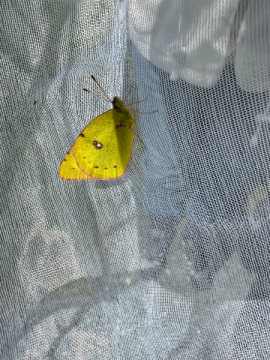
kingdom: Animalia
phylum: Arthropoda
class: Insecta
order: Lepidoptera
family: Pieridae
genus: Colias
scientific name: Colias philodice
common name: Clouded Sulphur
